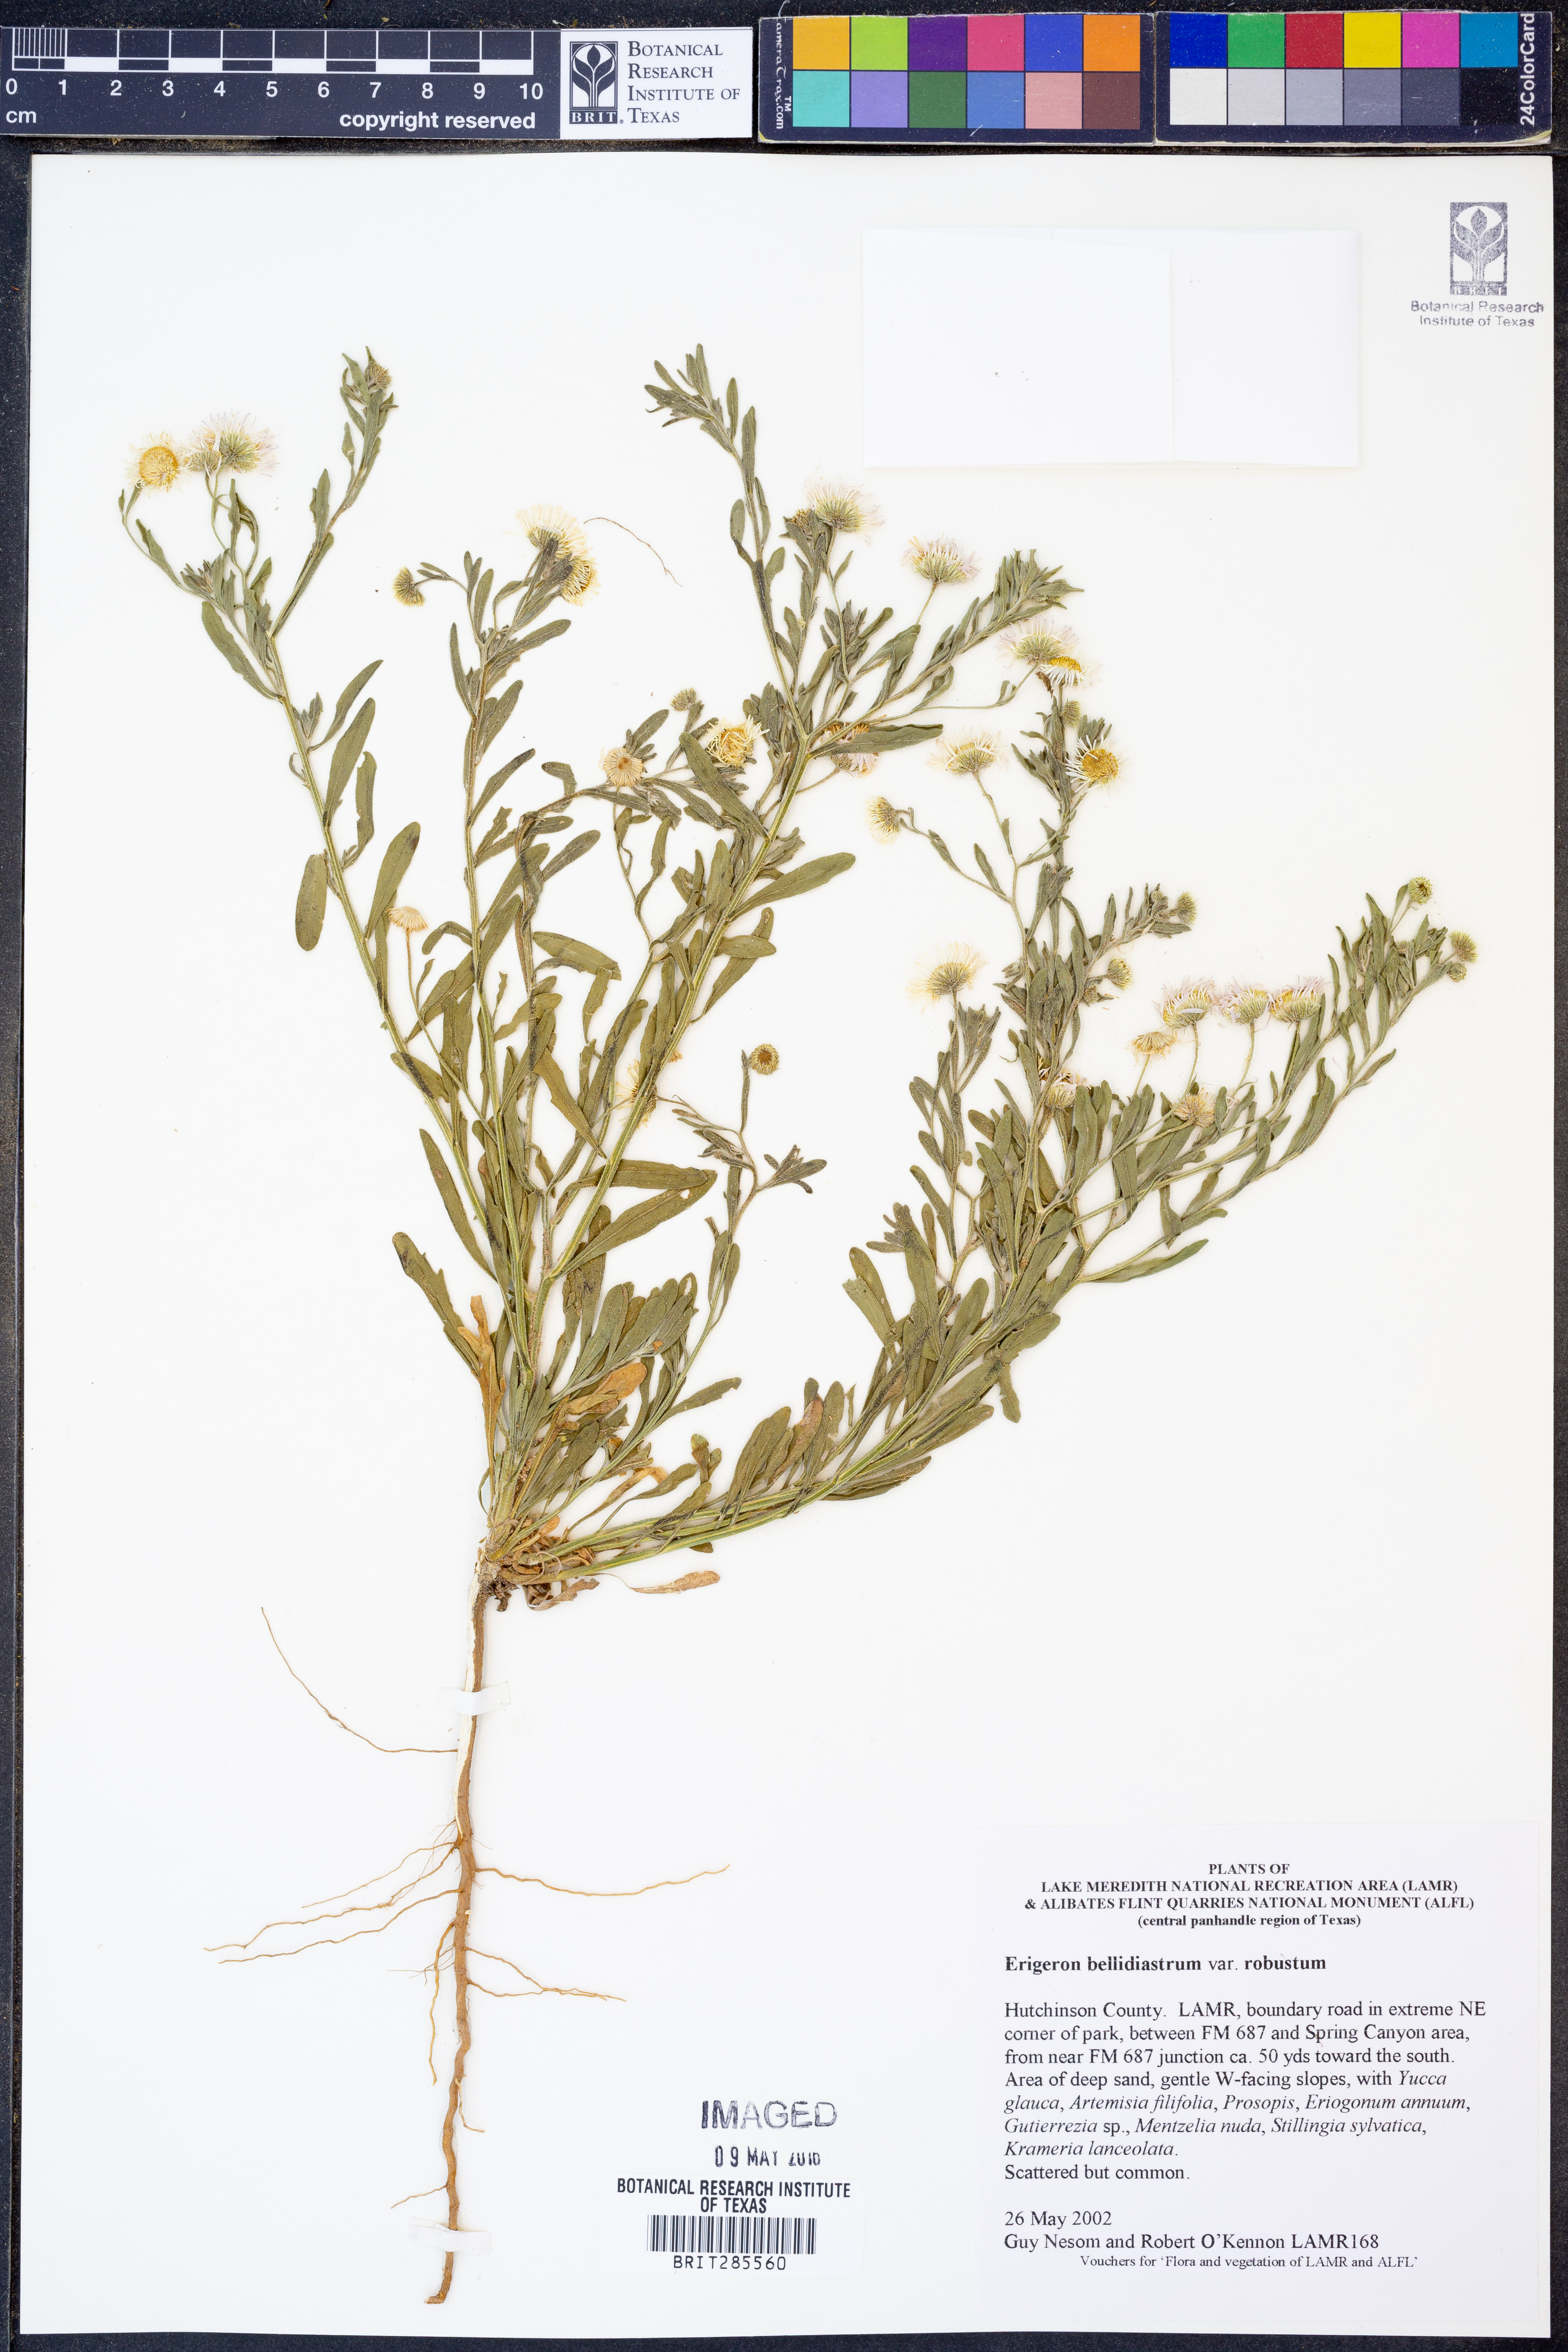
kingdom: Plantae
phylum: Tracheophyta
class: Magnoliopsida
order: Asterales
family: Asteraceae
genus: Erigeron
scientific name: Erigeron bellidiastrum
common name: Sand fleabane
